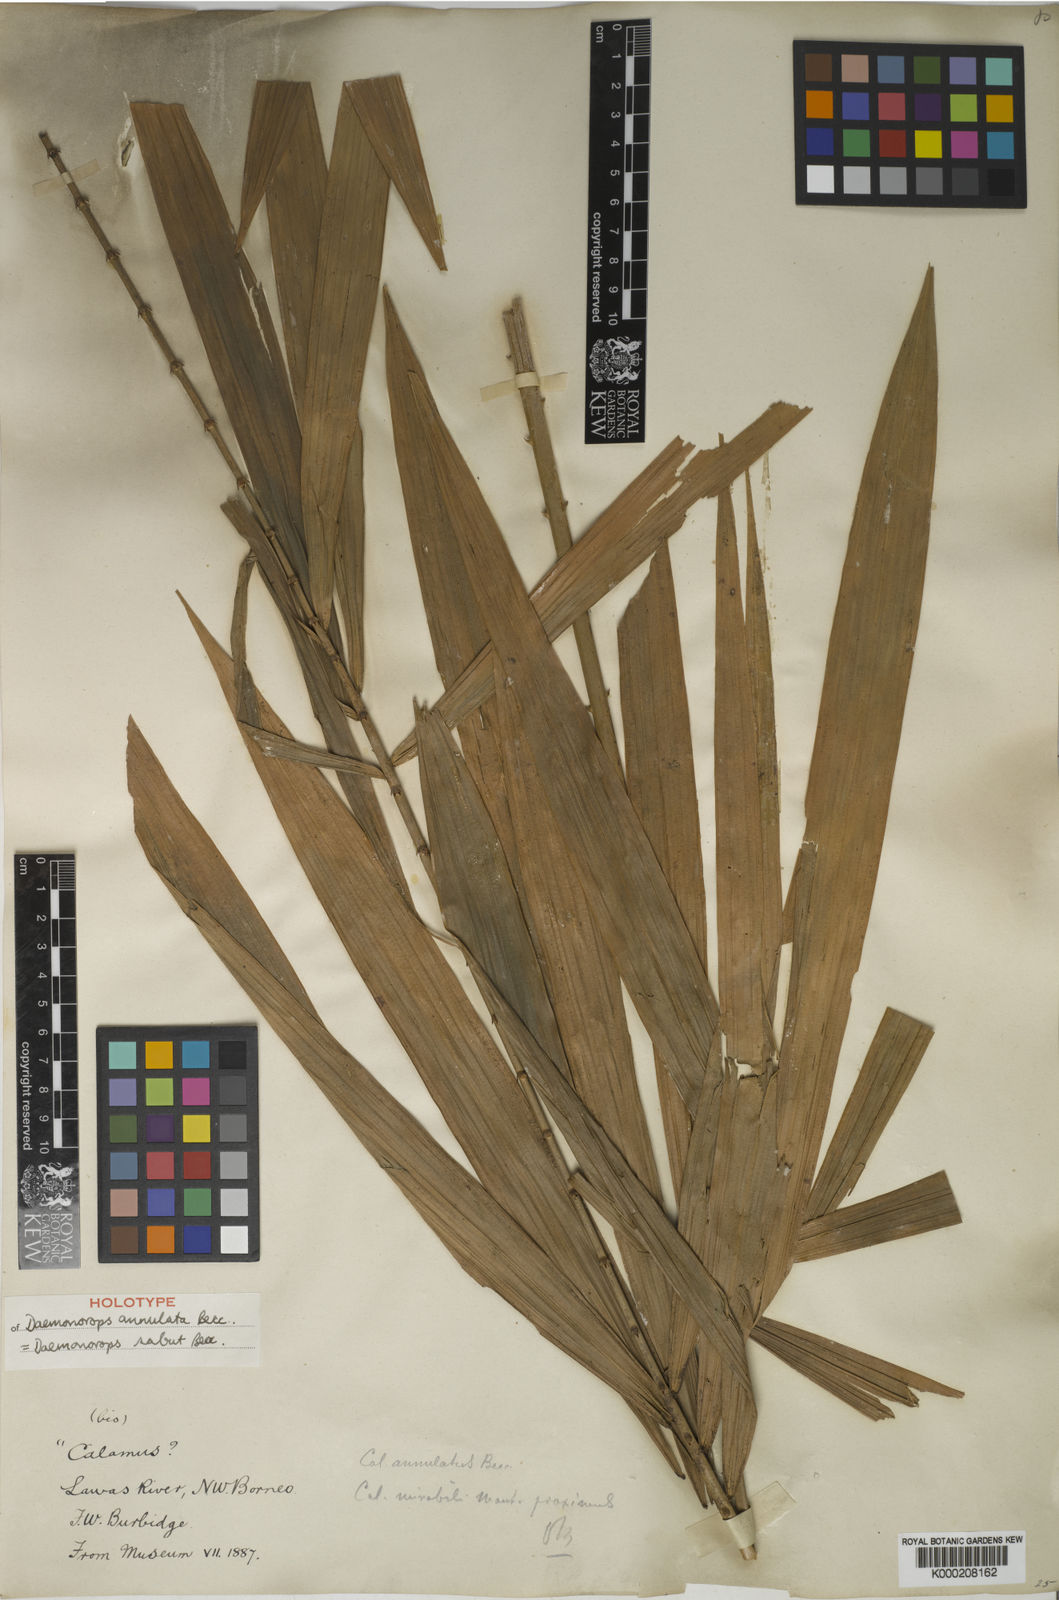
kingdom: Plantae
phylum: Tracheophyta
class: Liliopsida
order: Arecales
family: Arecaceae
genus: Calamus
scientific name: Calamus crinitus
